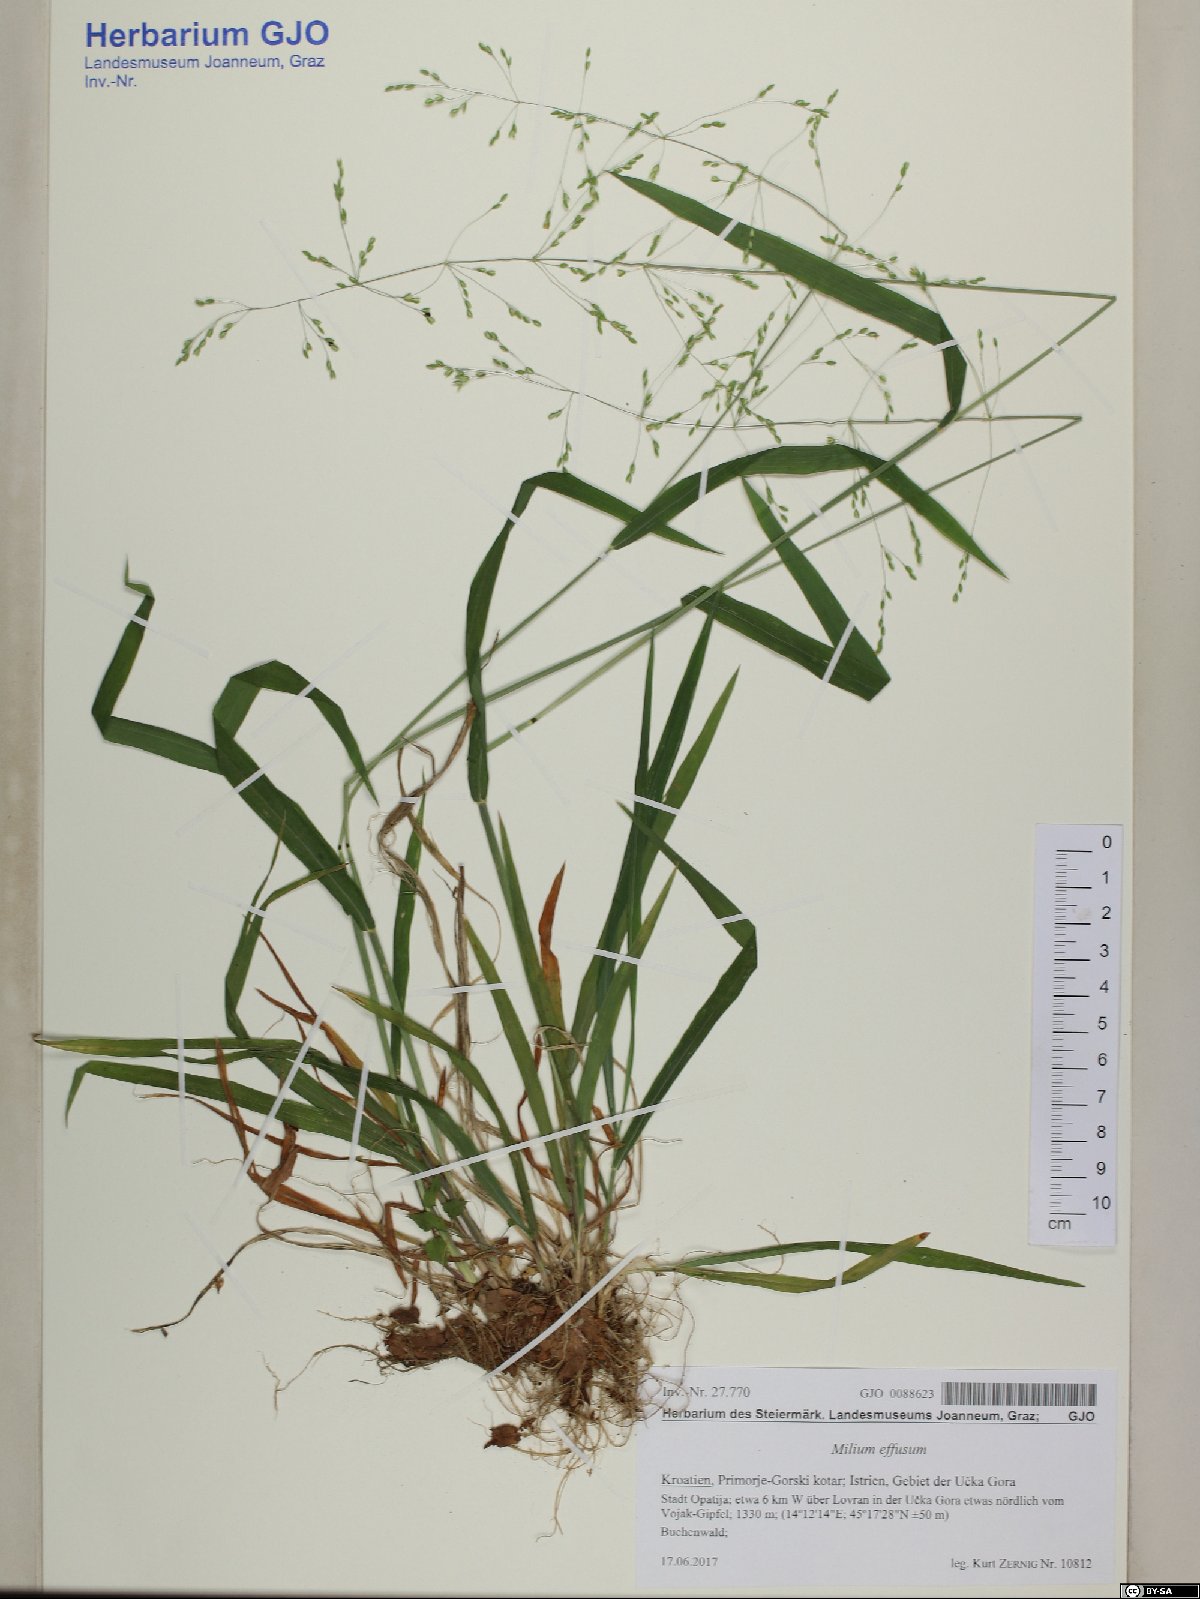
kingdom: Plantae
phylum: Tracheophyta
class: Liliopsida
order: Poales
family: Poaceae
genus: Milium
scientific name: Milium effusum
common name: Wood millet
